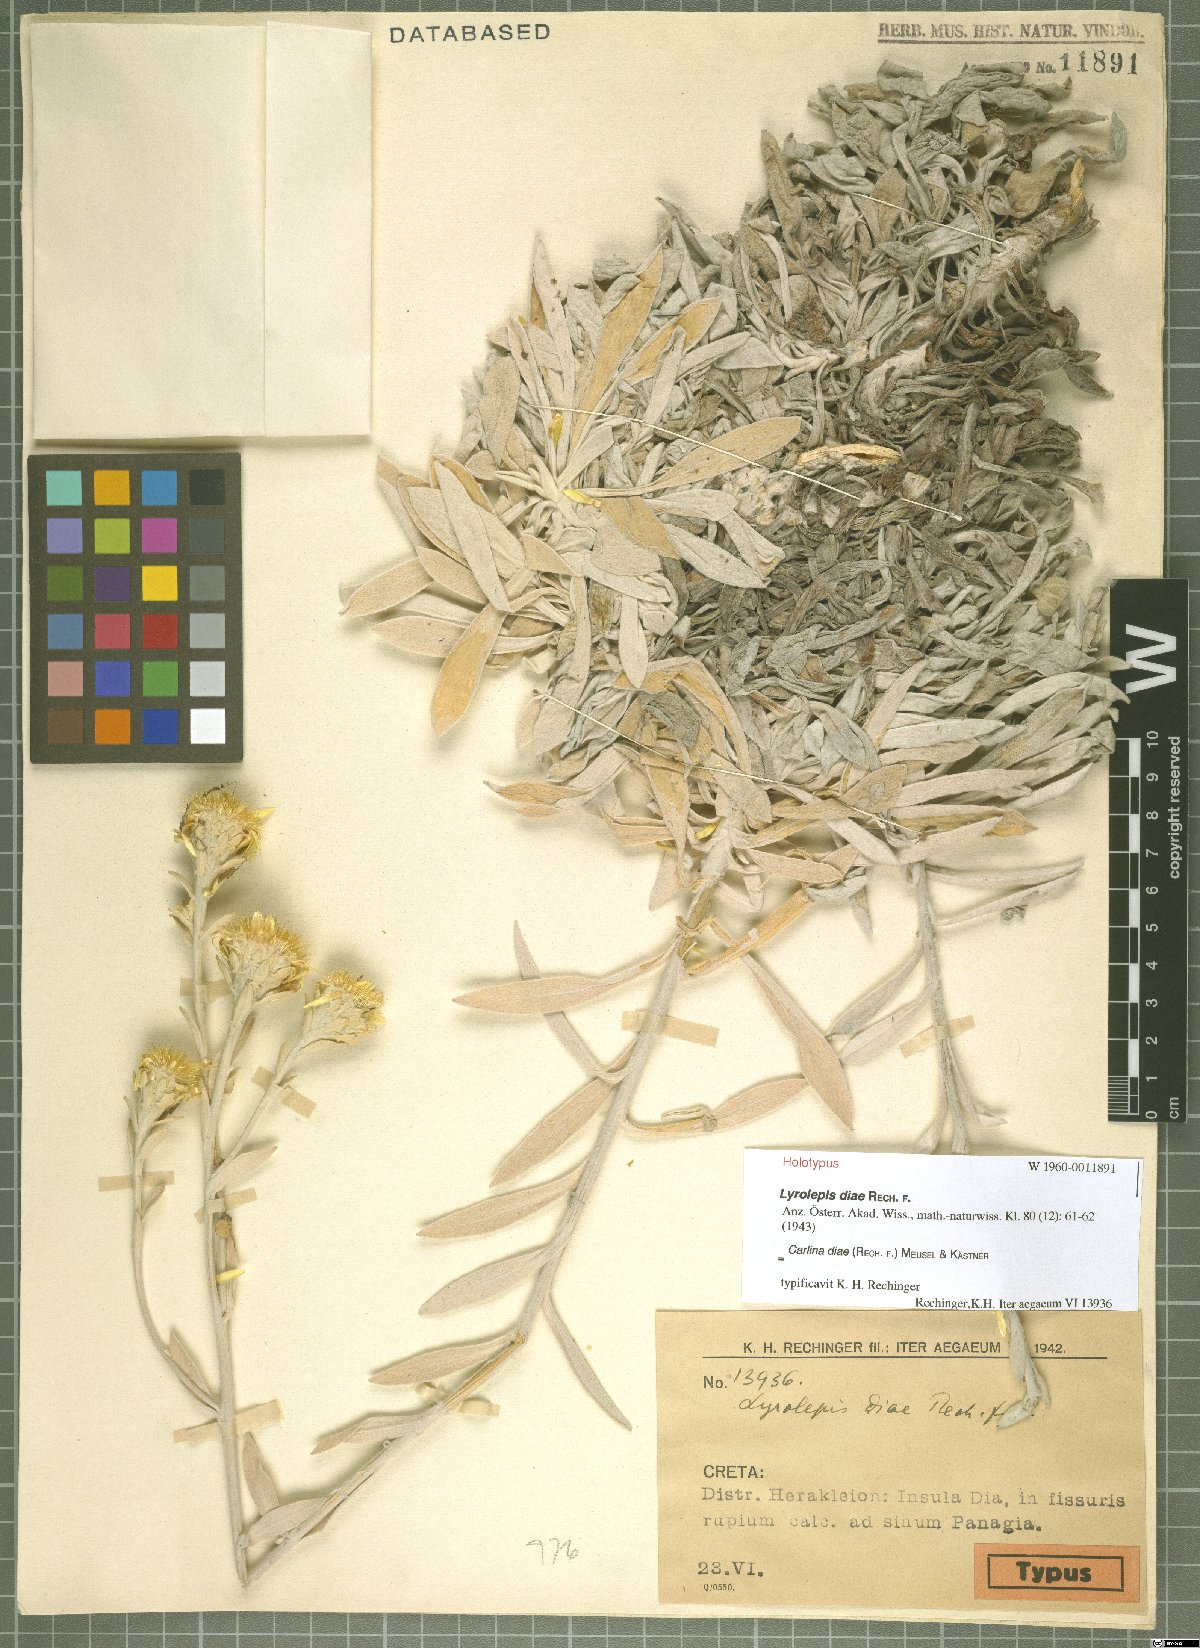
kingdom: Plantae
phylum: Tracheophyta
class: Magnoliopsida
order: Asterales
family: Asteraceae
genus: Carlina
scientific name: Carlina diae
